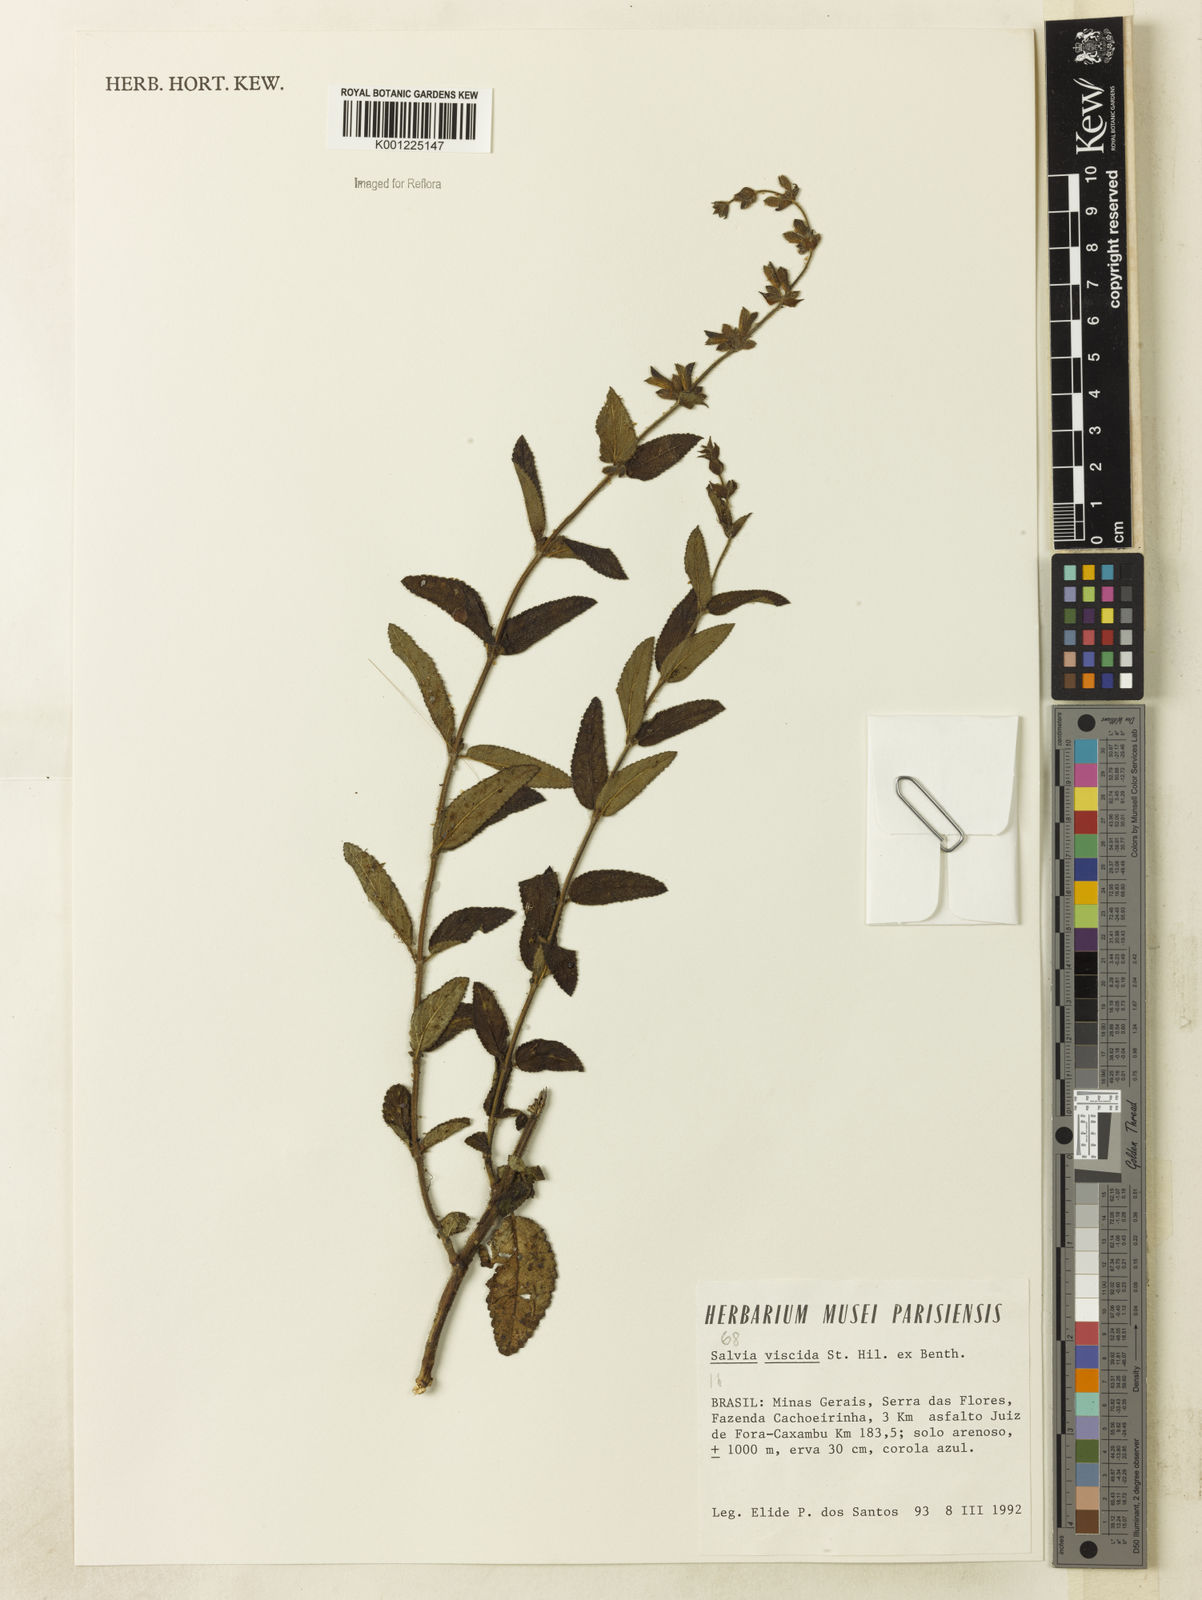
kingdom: Plantae
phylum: Tracheophyta
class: Magnoliopsida
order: Lamiales
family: Lamiaceae
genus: Salvia
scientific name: Salvia viscida
